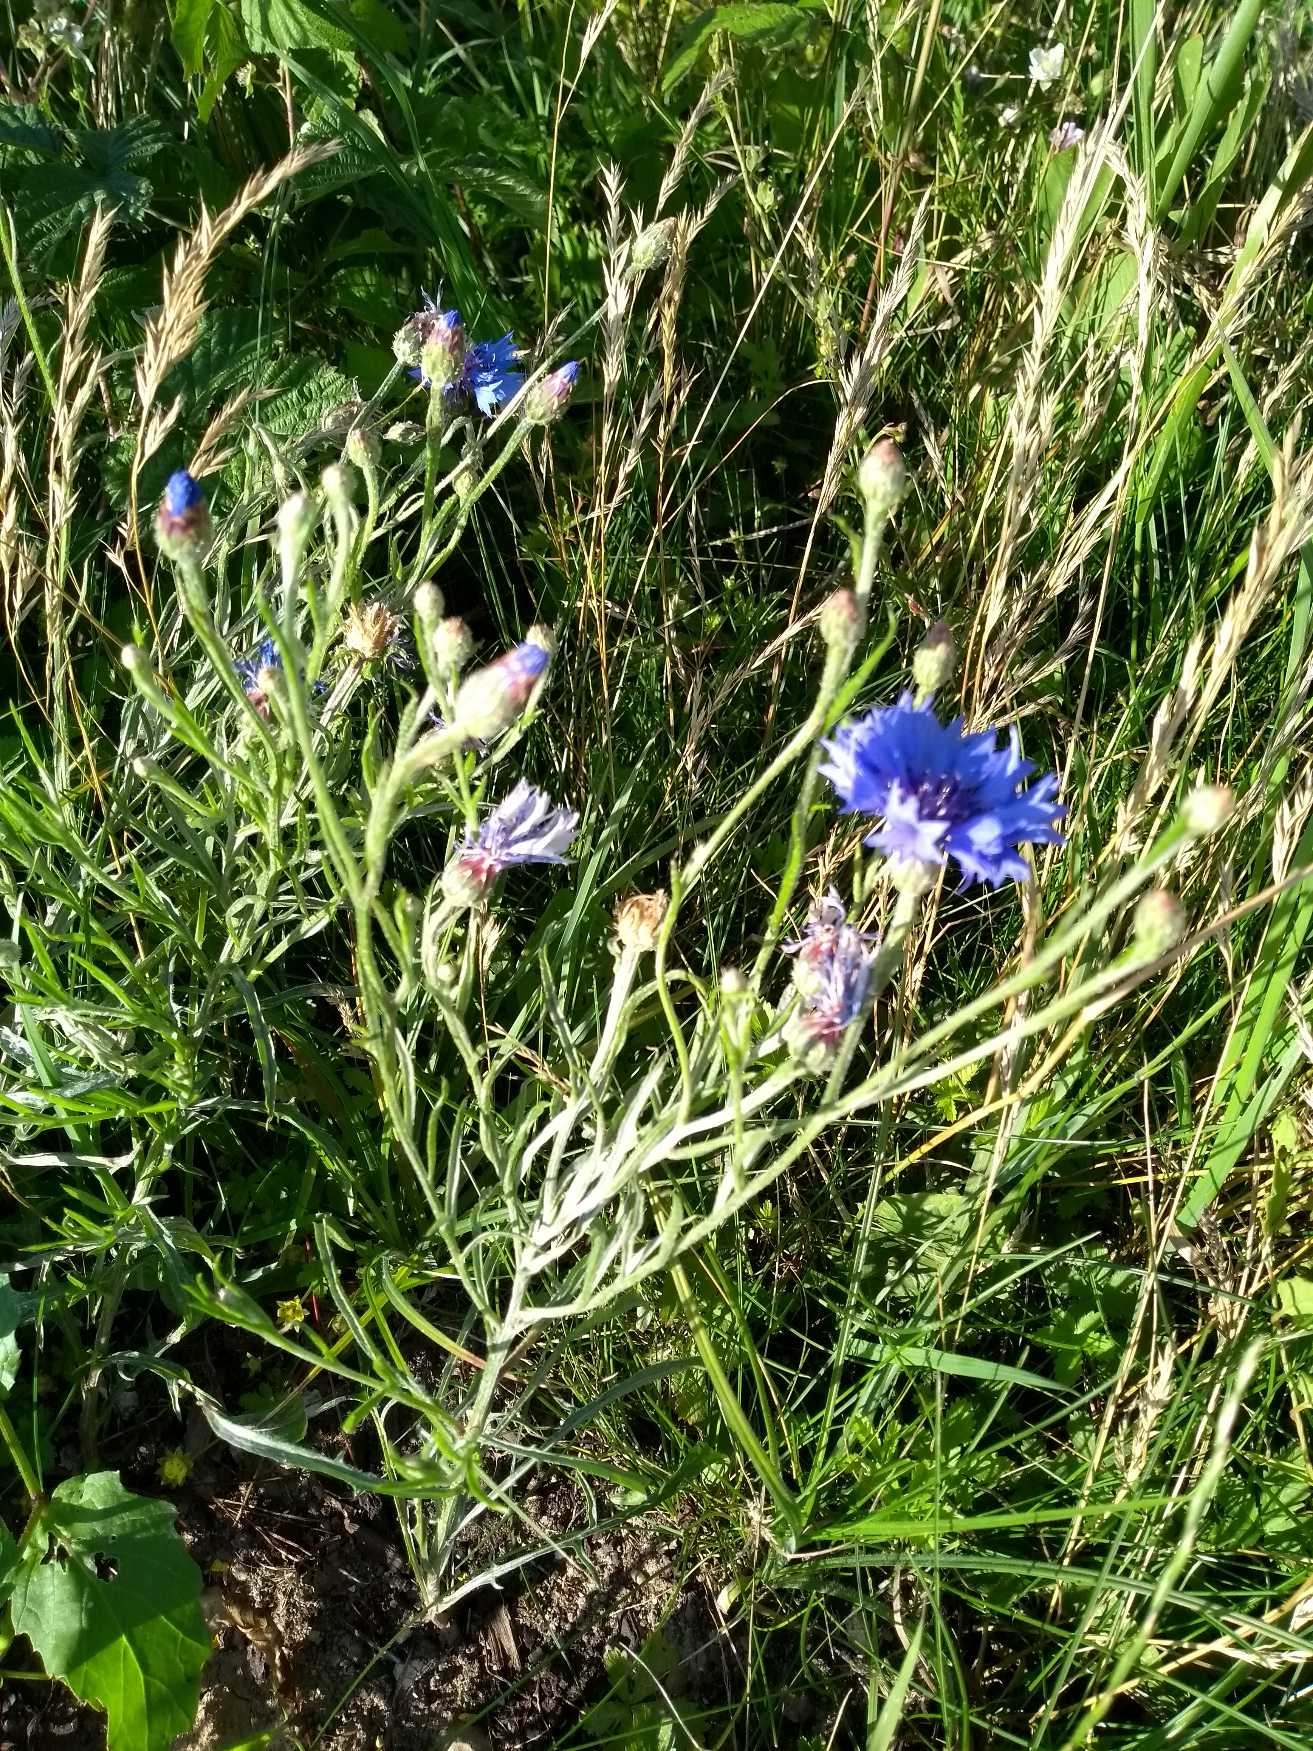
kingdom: Plantae
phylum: Tracheophyta
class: Magnoliopsida
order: Asterales
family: Asteraceae
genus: Centaurea
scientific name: Centaurea cyanus
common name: Kornblomst
